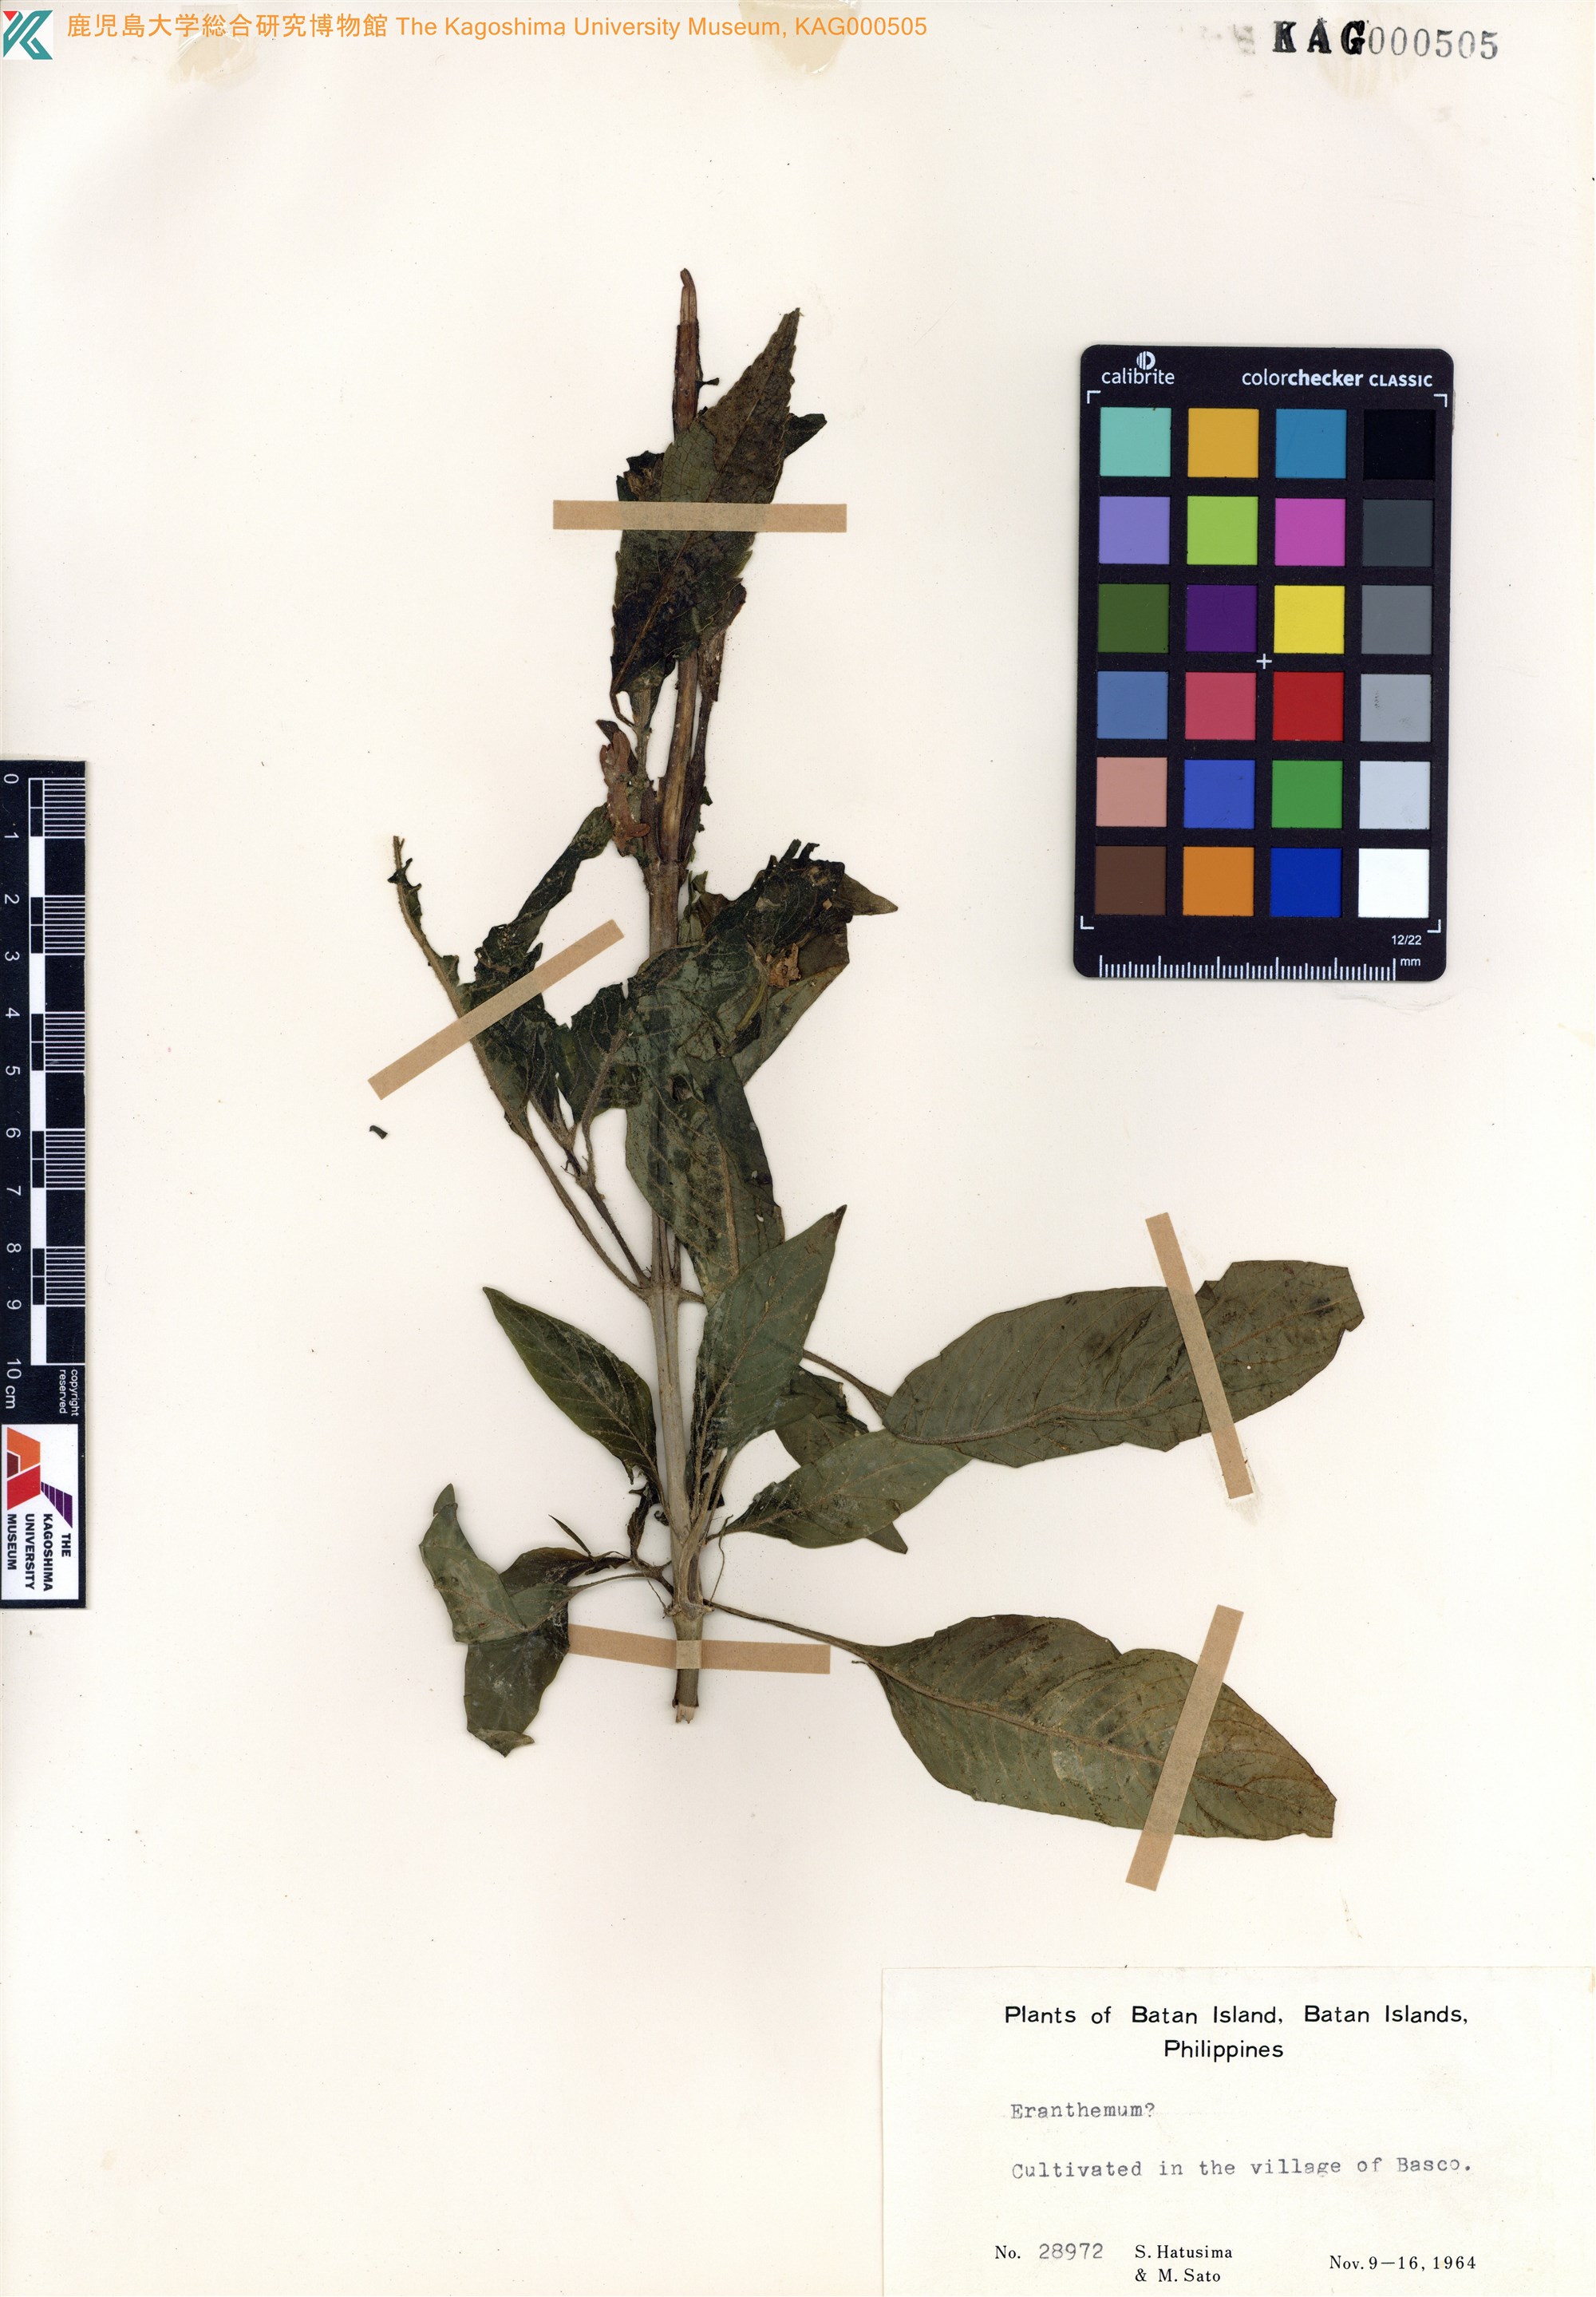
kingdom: Plantae
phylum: Tracheophyta
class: Magnoliopsida
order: Lamiales
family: Acanthaceae
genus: Eranthemum
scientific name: Eranthemum
